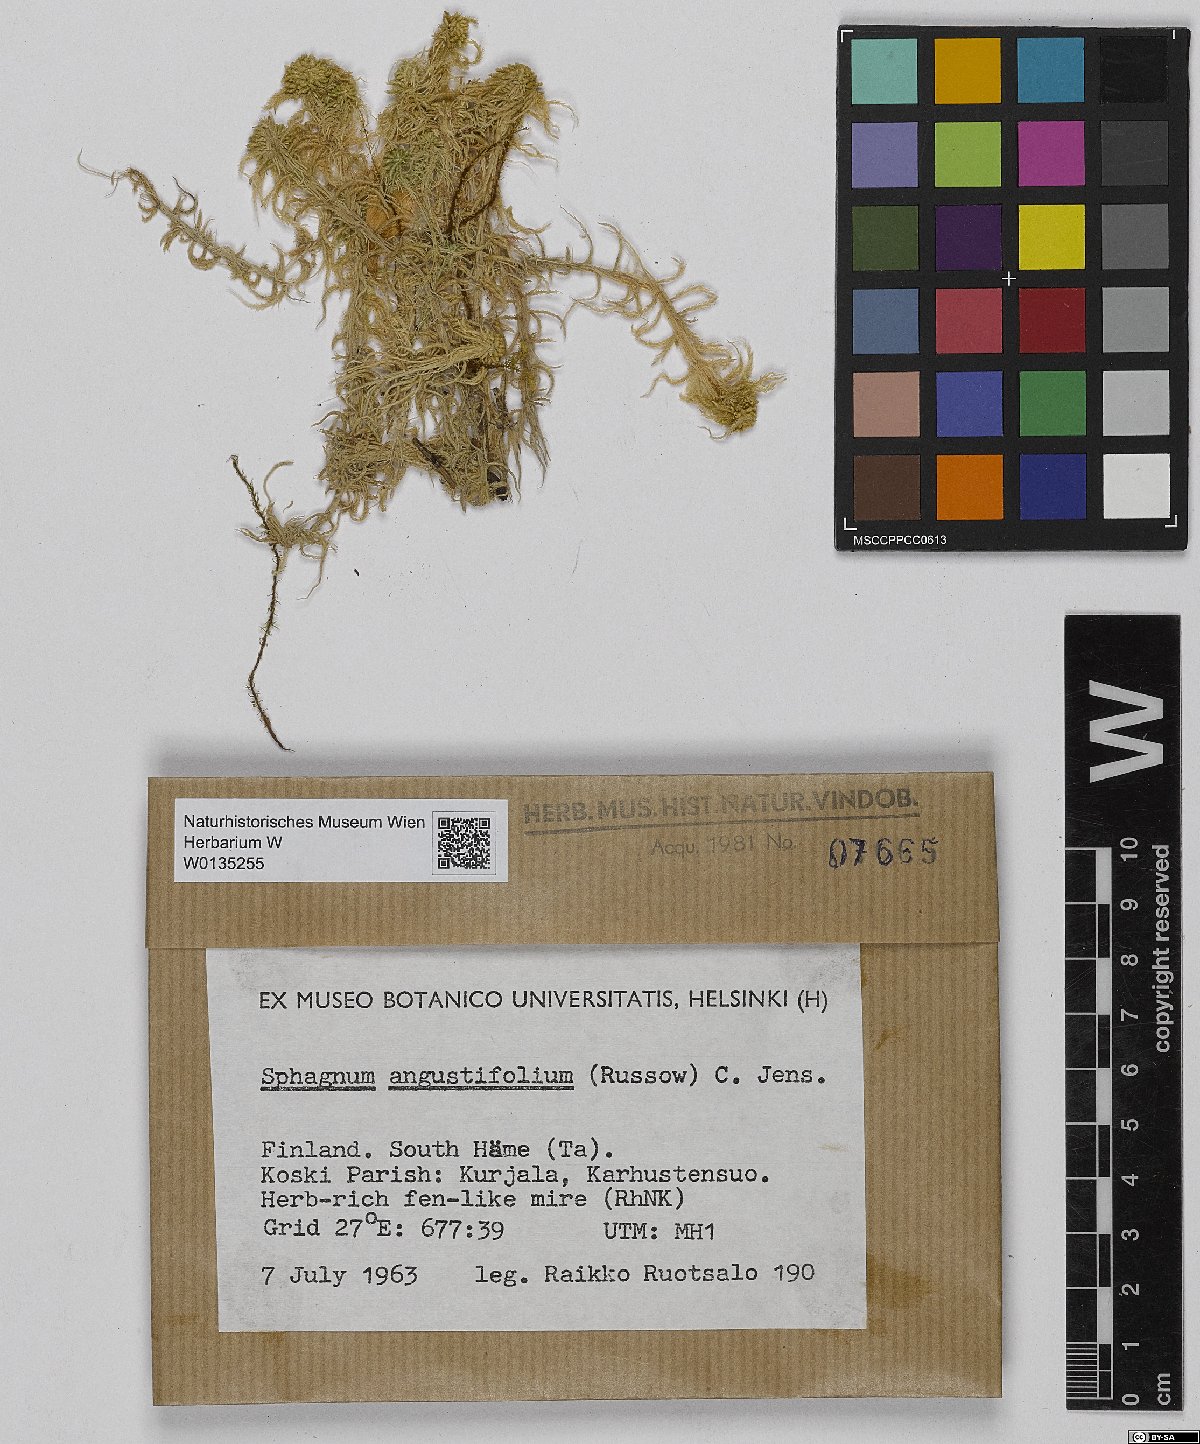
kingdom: Plantae
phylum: Bryophyta
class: Sphagnopsida
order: Sphagnales
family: Sphagnaceae
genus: Sphagnum
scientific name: Sphagnum angustifolium
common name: Narrow-leaved peat moss
